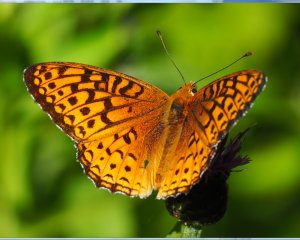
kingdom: Animalia
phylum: Arthropoda
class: Insecta
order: Lepidoptera
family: Nymphalidae
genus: Speyeria
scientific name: Speyeria cybele
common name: Great Spangled Fritillary
